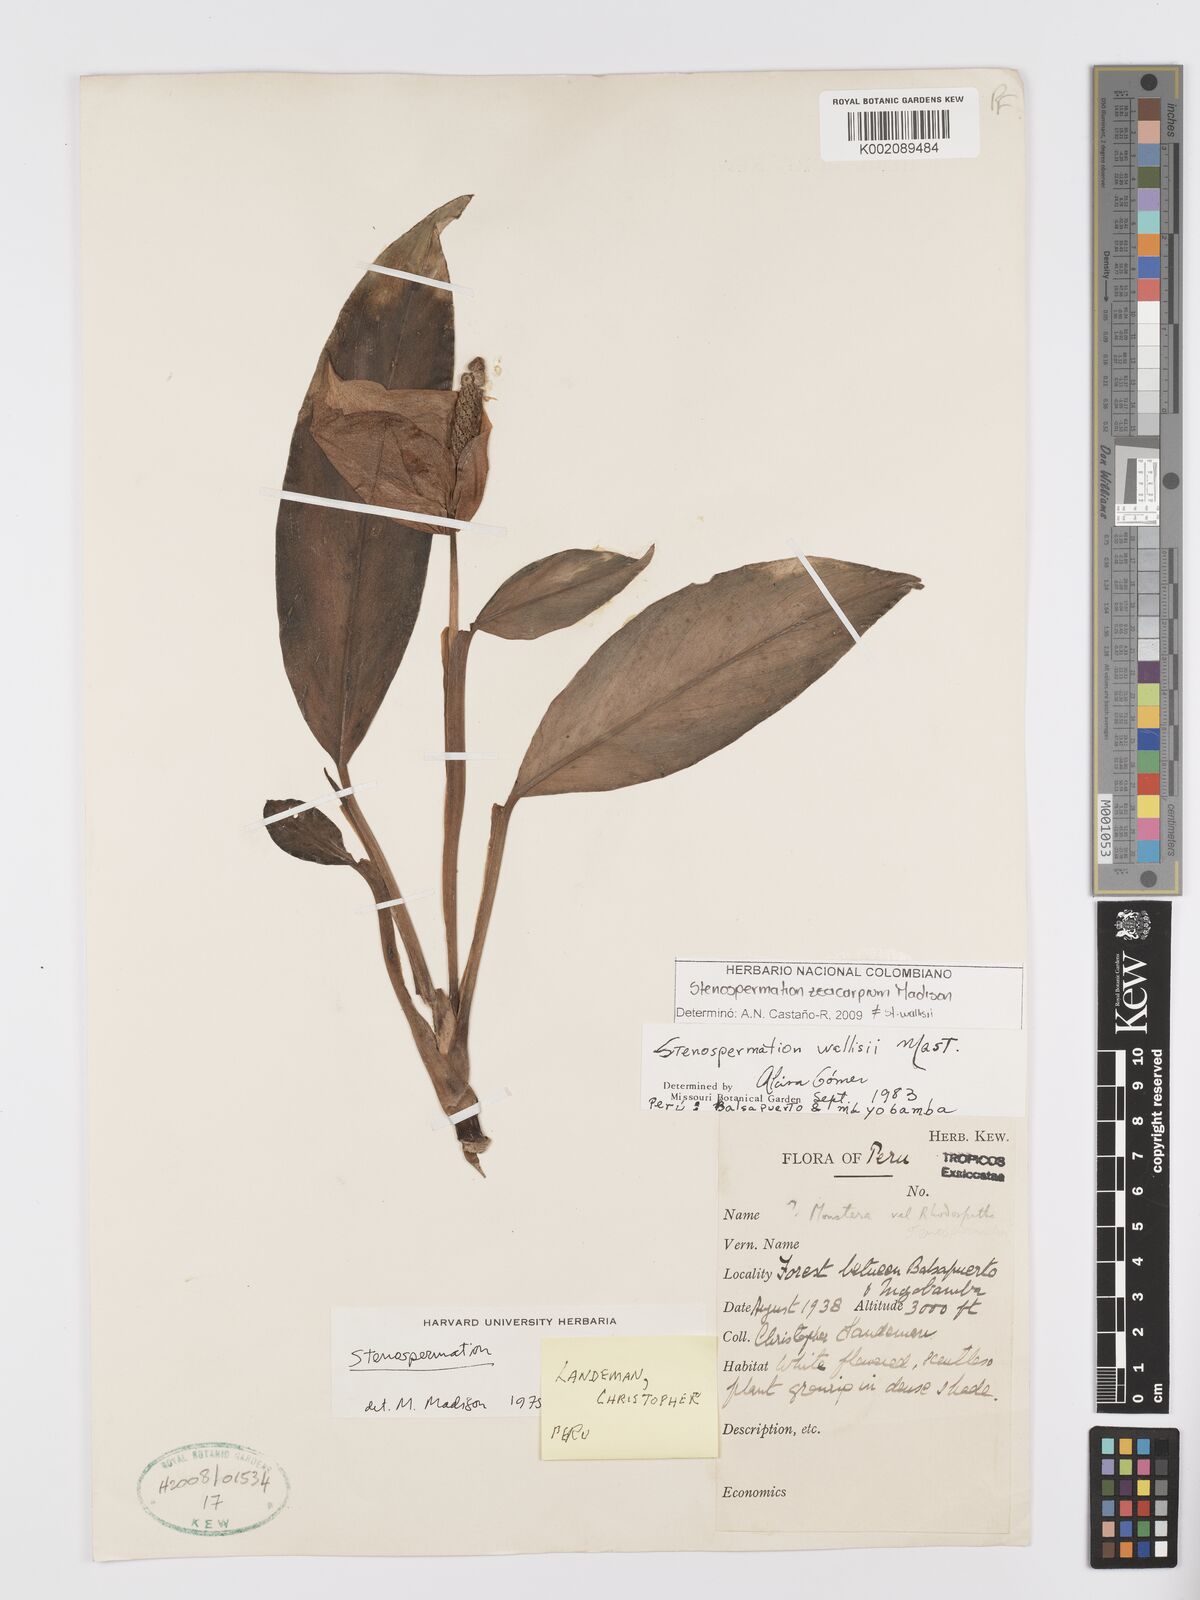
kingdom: Plantae
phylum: Tracheophyta
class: Liliopsida
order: Alismatales
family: Araceae
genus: Stenospermation
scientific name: Stenospermation zeacarpium
